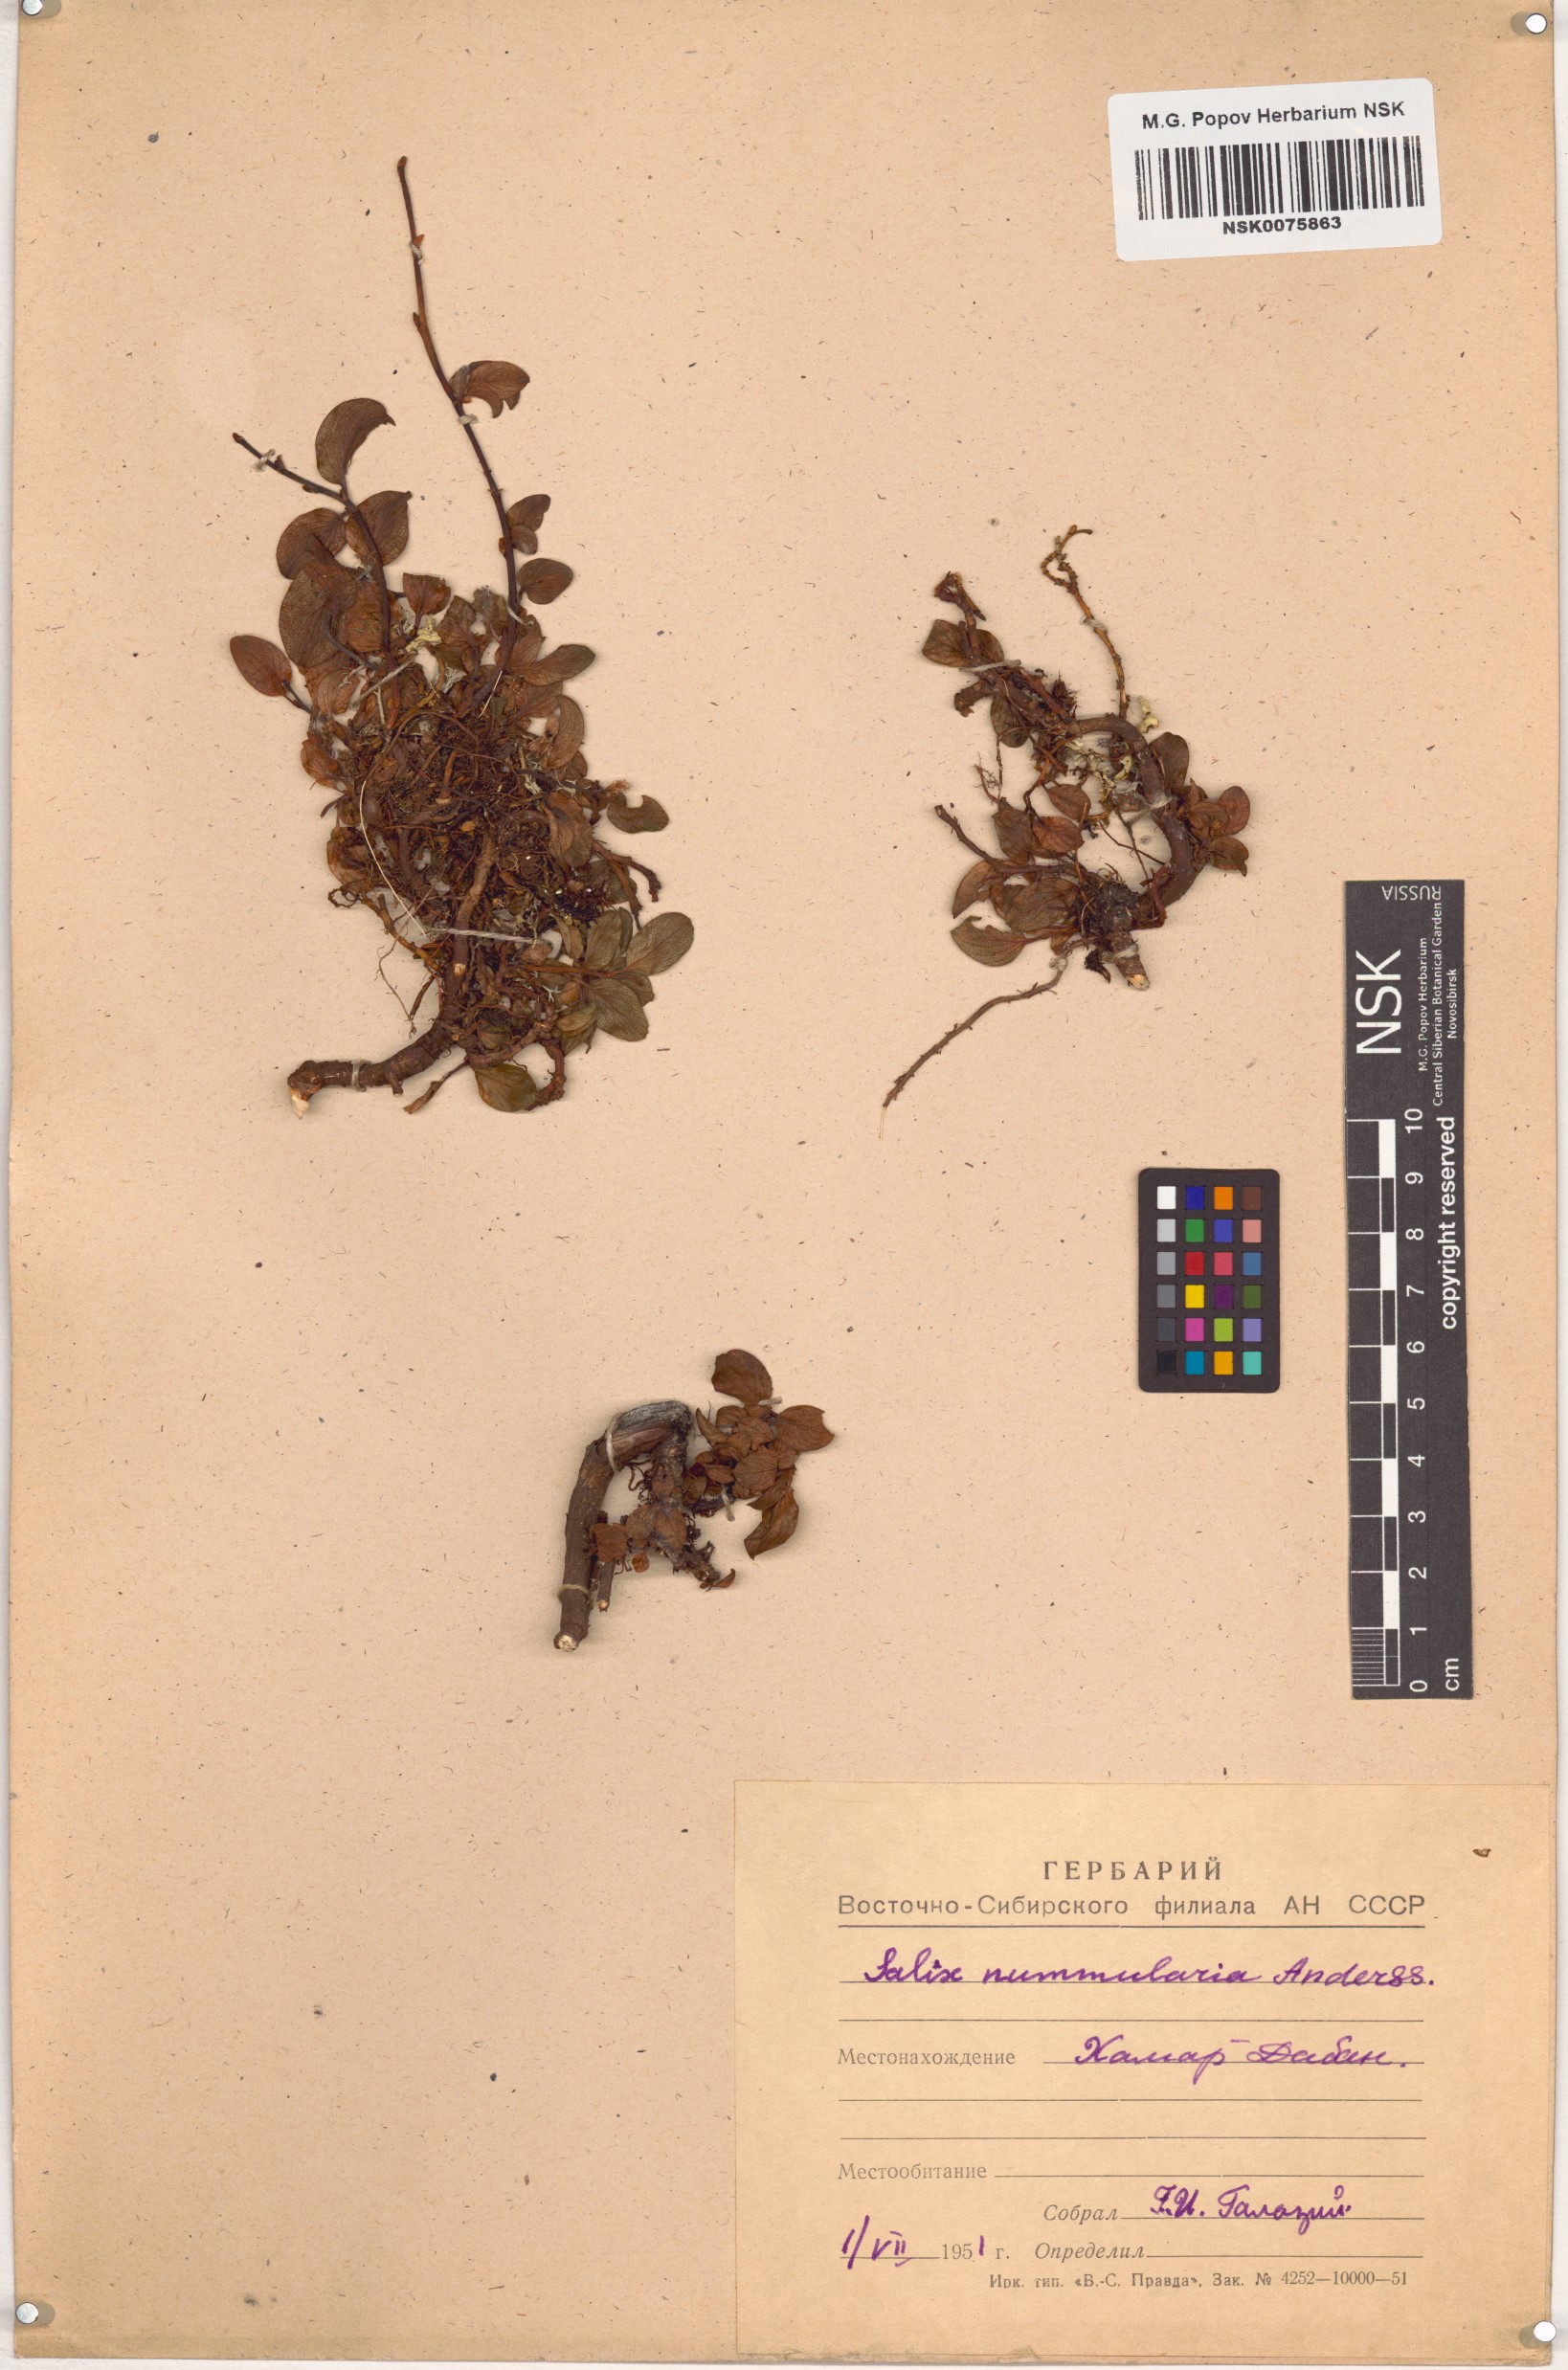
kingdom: Plantae
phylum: Tracheophyta
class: Magnoliopsida
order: Malpighiales
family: Salicaceae
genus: Salix
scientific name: Salix nummularia
